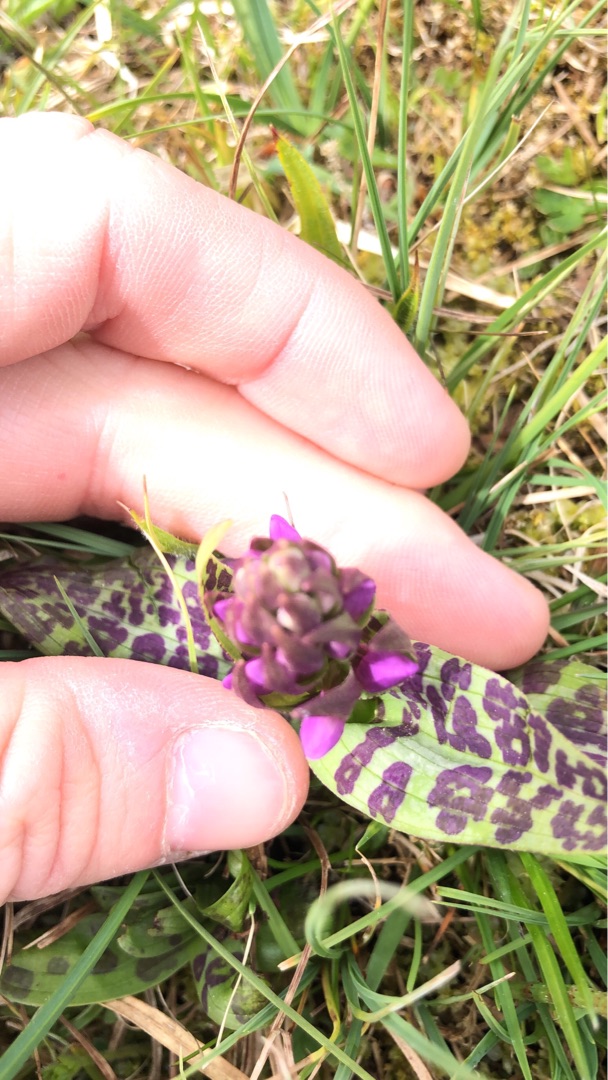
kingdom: Plantae
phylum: Tracheophyta
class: Liliopsida
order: Asparagales
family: Orchidaceae
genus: Dactylorhiza
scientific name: Dactylorhiza majalis
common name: Maj-gøgeurt
